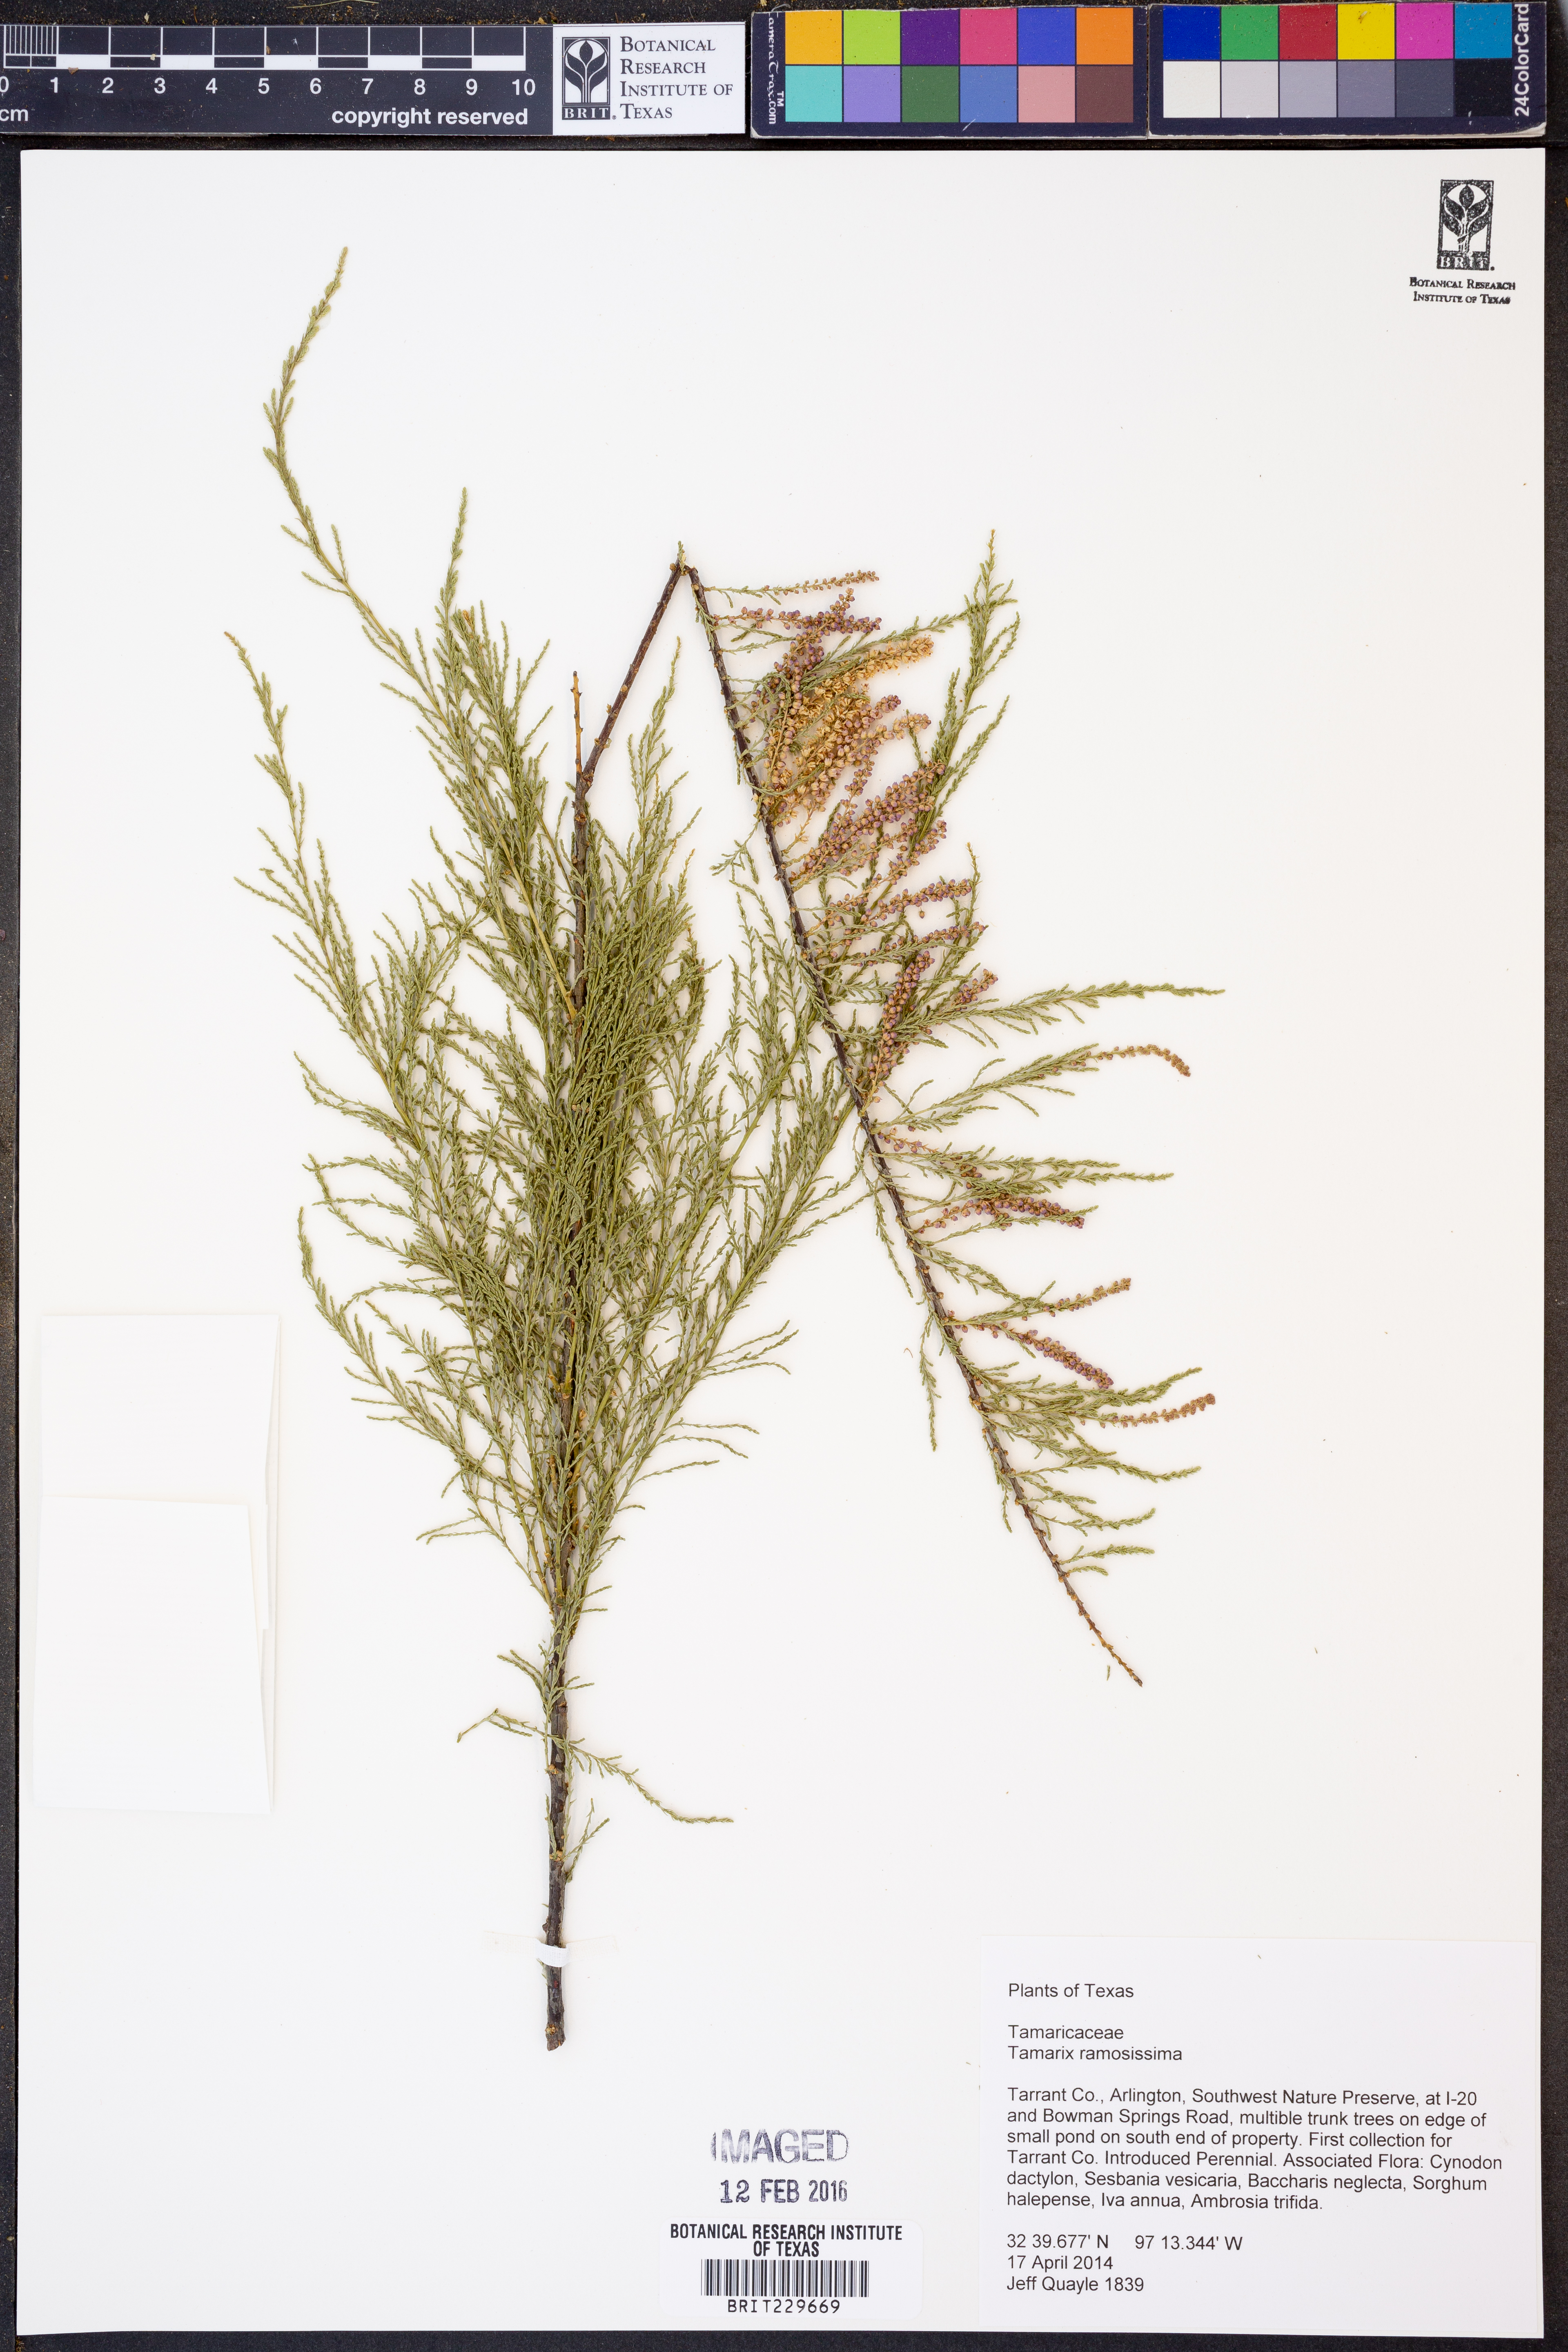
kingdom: Plantae
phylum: Tracheophyta
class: Magnoliopsida
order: Caryophyllales
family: Tamaricaceae
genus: Tamarix
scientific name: Tamarix ramosissima
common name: Pink tamarisk
